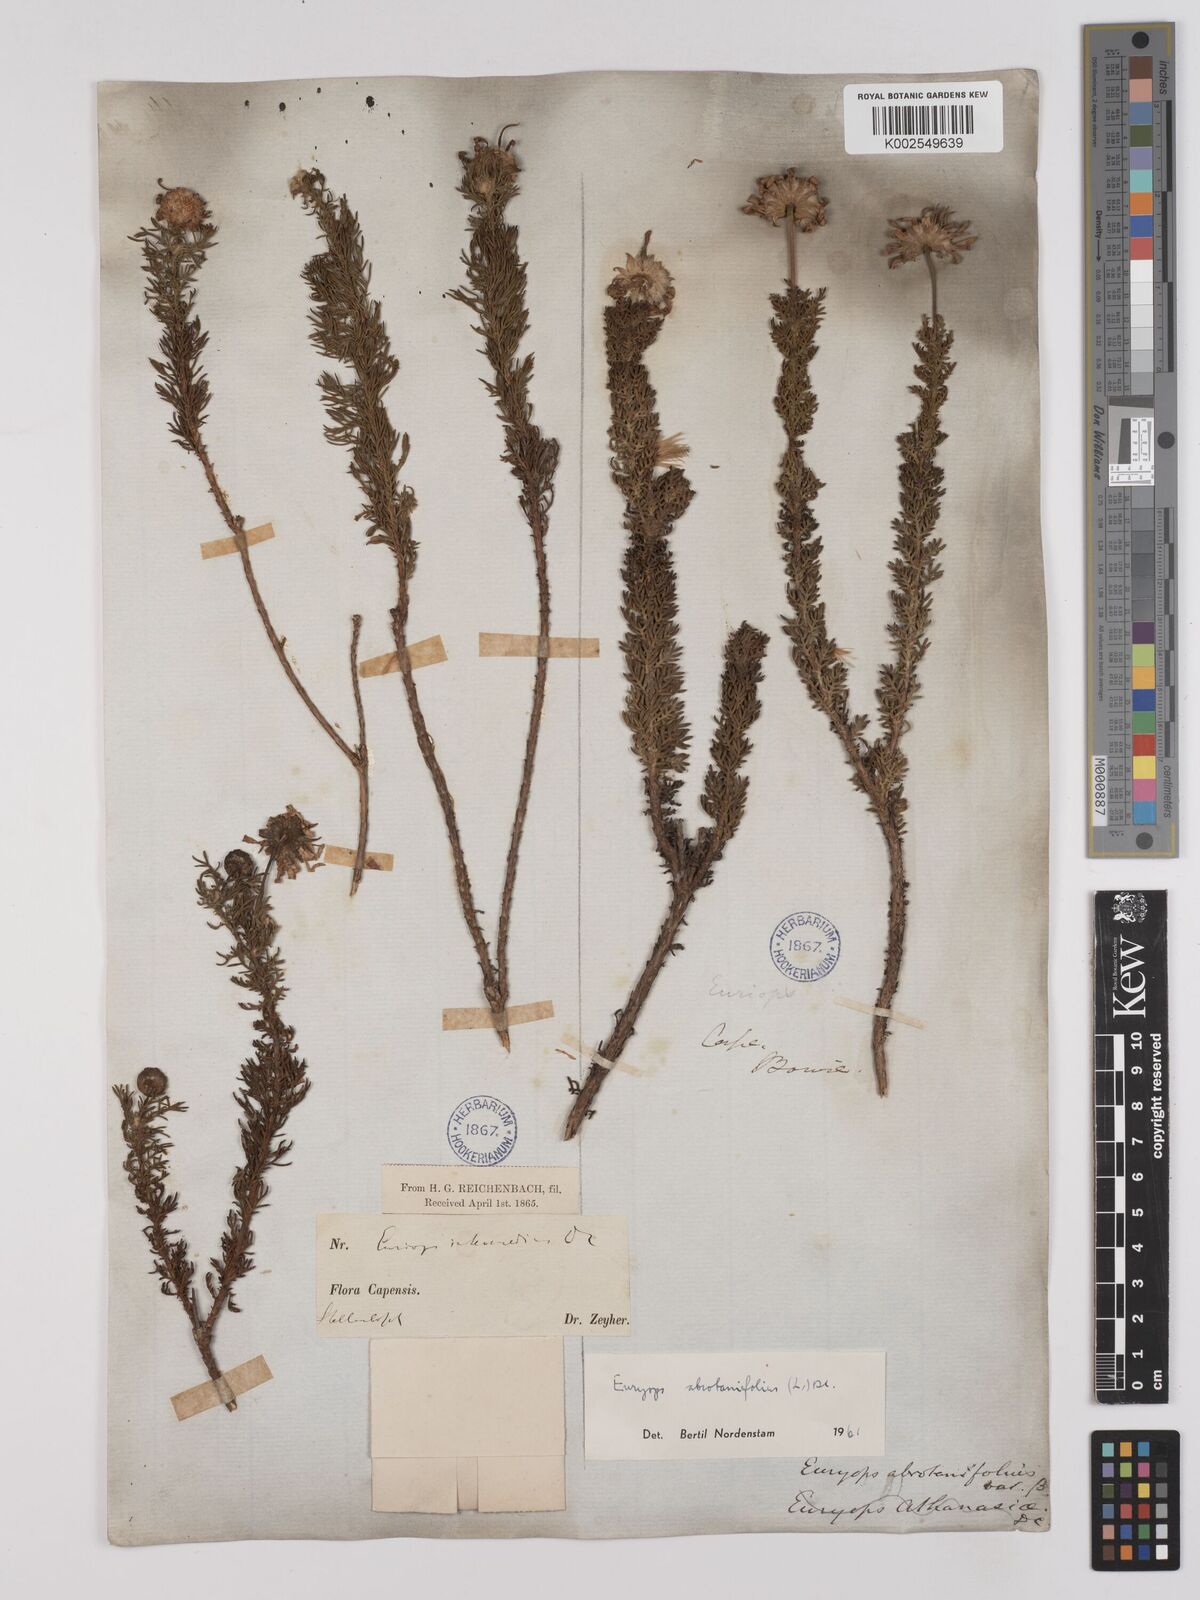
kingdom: Plantae
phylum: Tracheophyta
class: Magnoliopsida
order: Asterales
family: Asteraceae
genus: Euryops
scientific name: Euryops abrotanifolius
